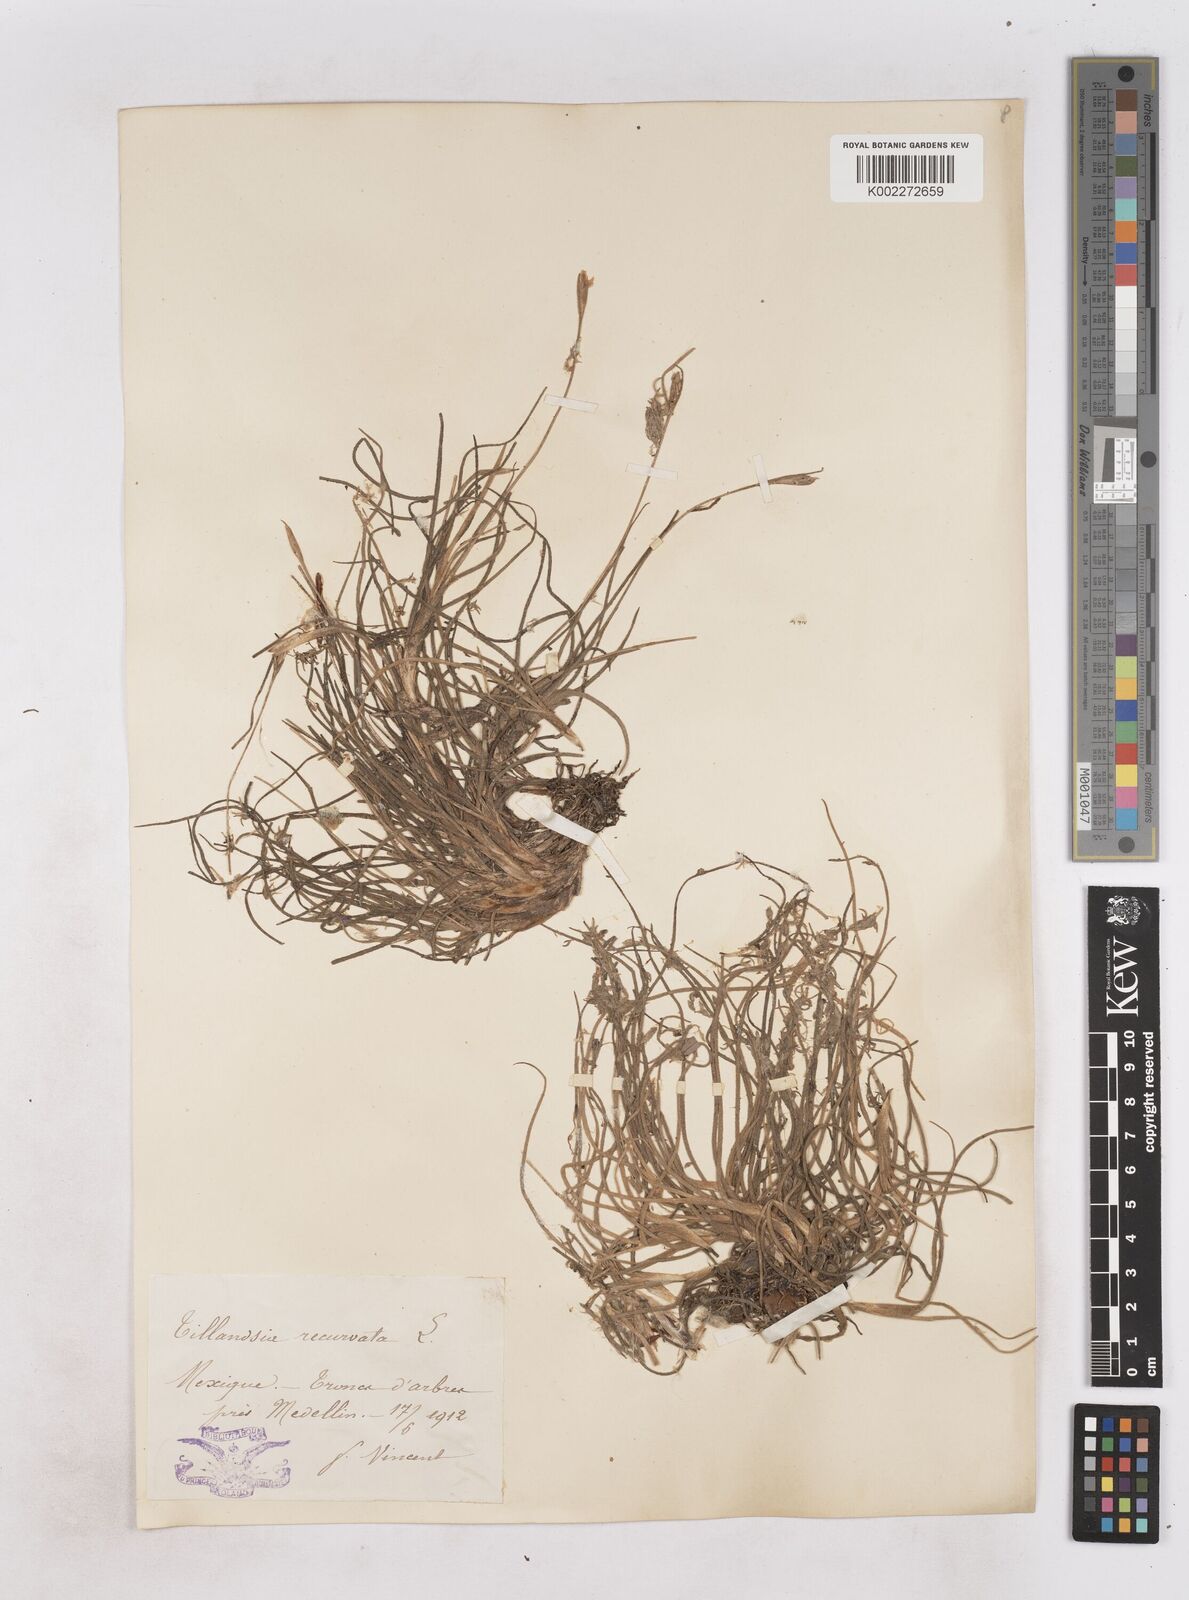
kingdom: Plantae
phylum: Tracheophyta
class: Liliopsida
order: Poales
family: Bromeliaceae
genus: Tillandsia
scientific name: Tillandsia recurvata
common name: Small ballmoss
